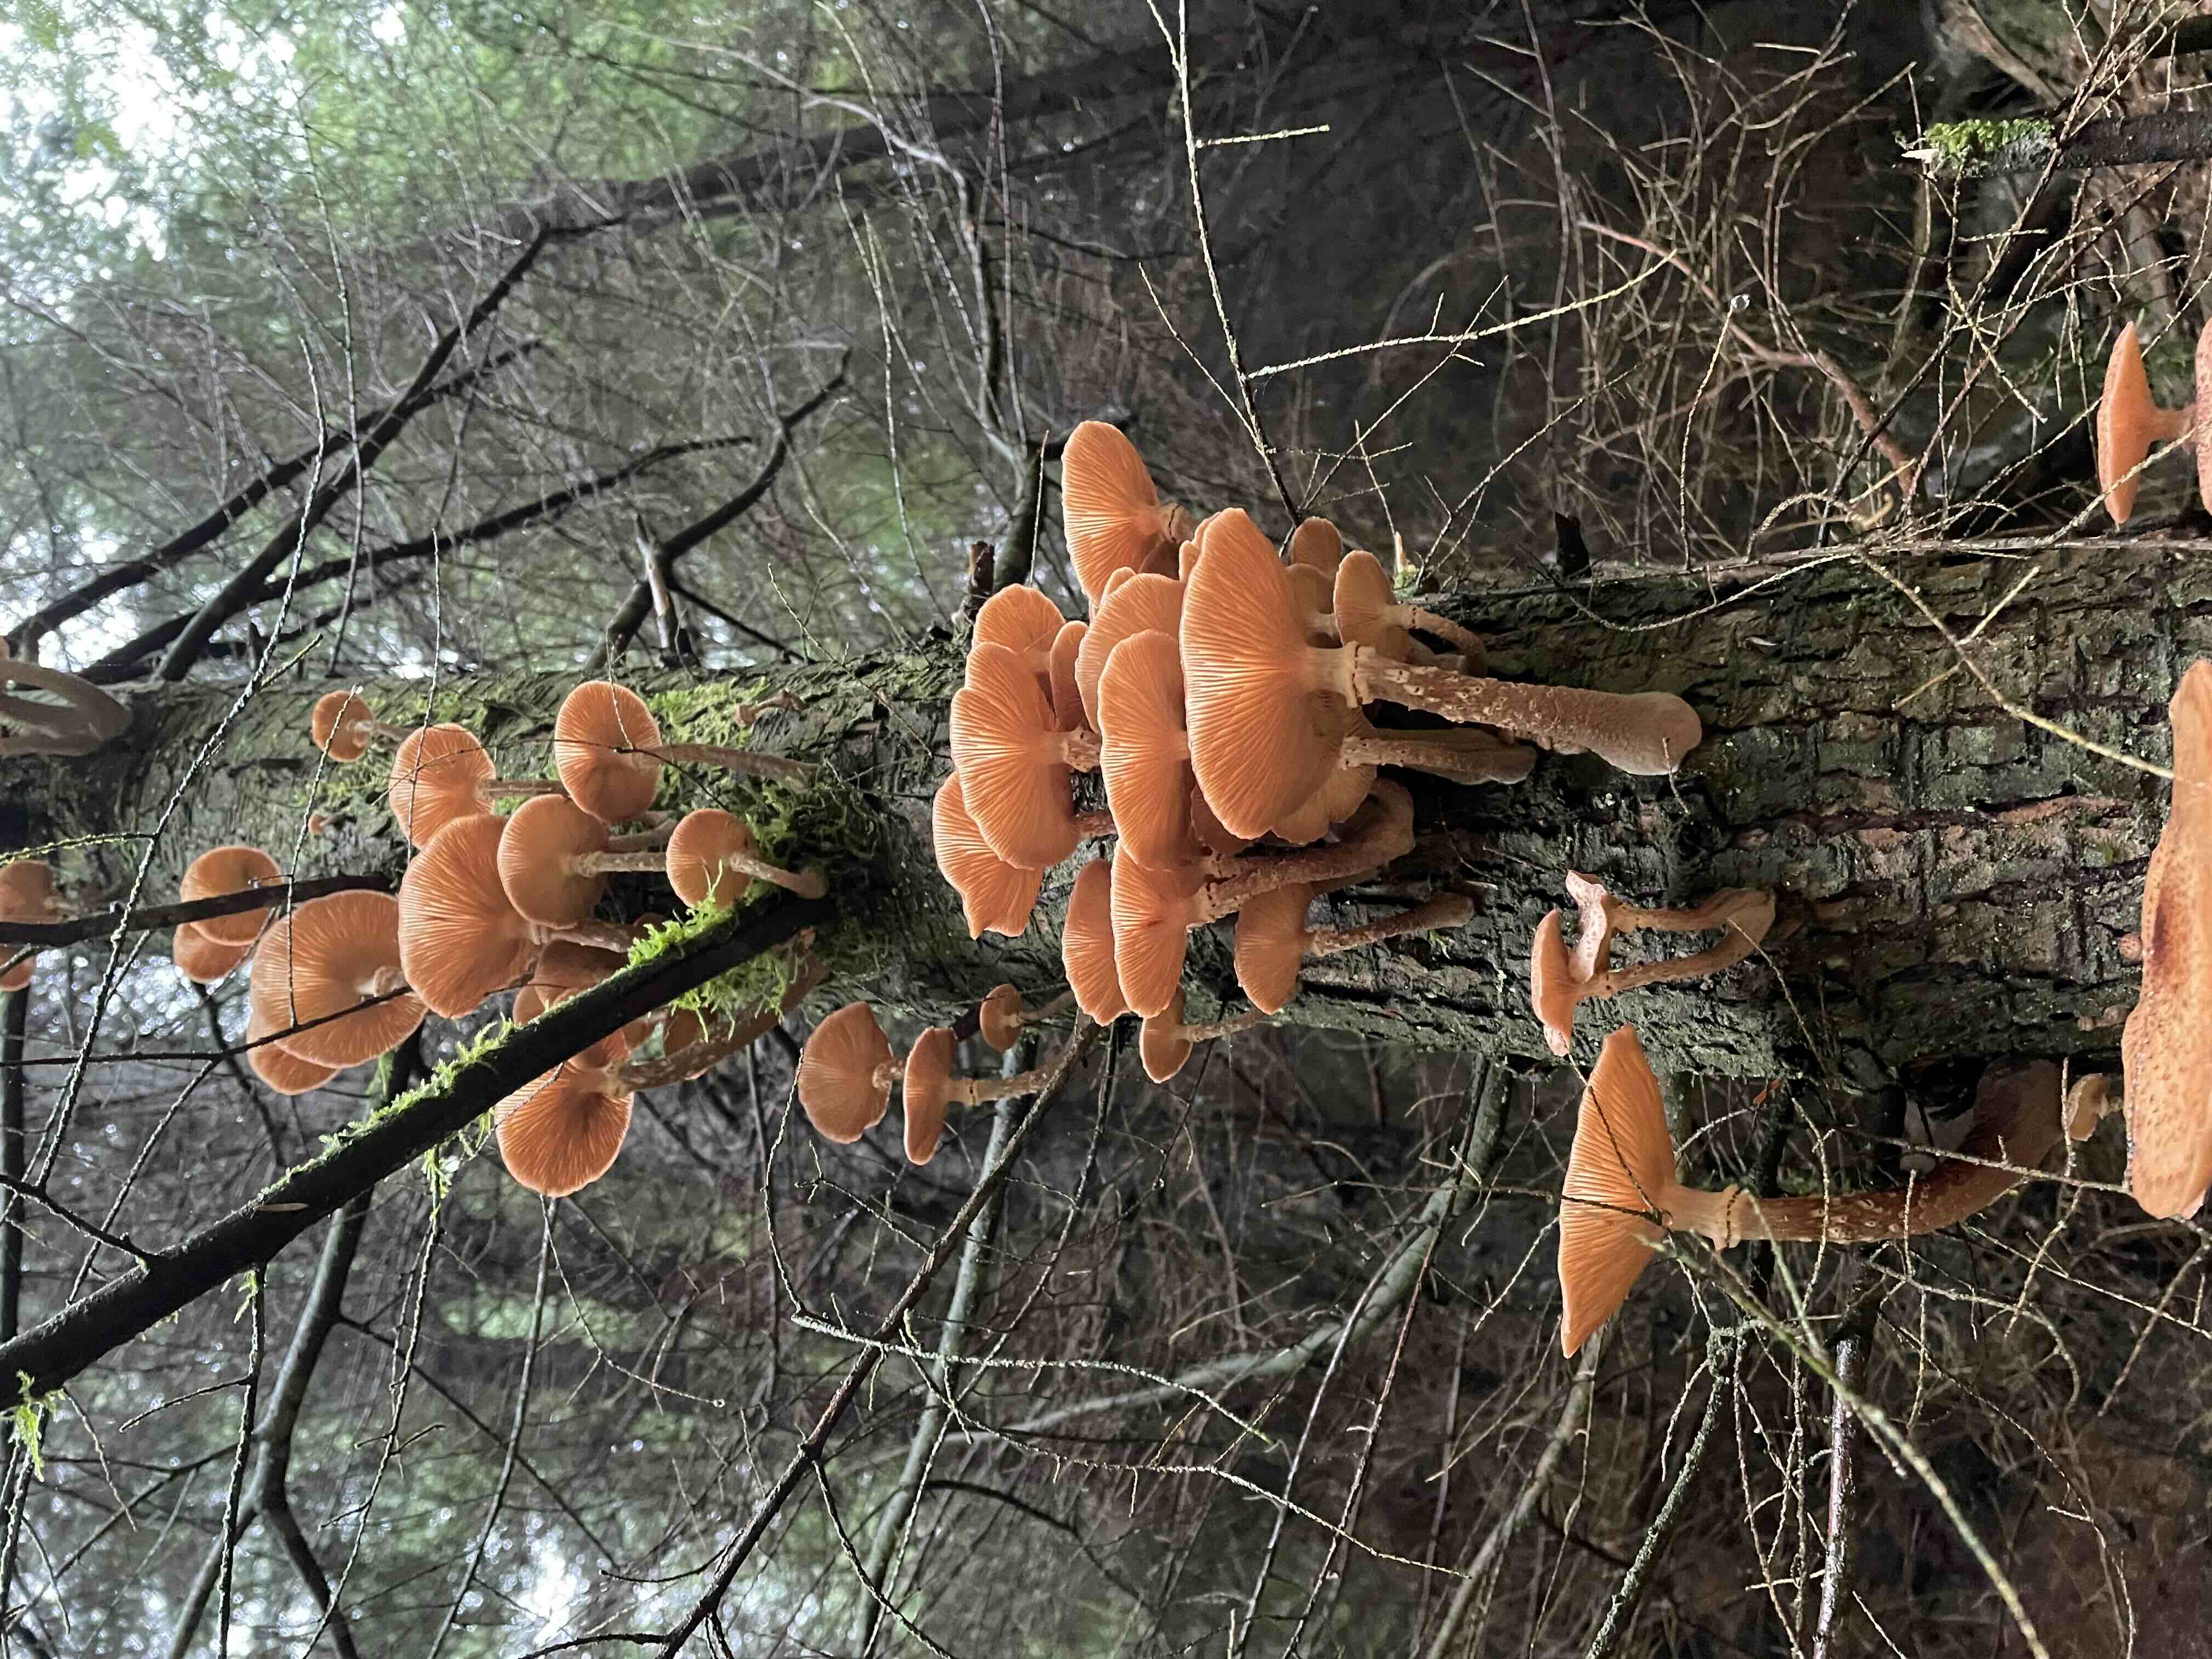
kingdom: Fungi
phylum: Basidiomycota
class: Agaricomycetes
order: Agaricales
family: Physalacriaceae
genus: Armillaria
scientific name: Armillaria ostoyae
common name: mørk honningsvamp
